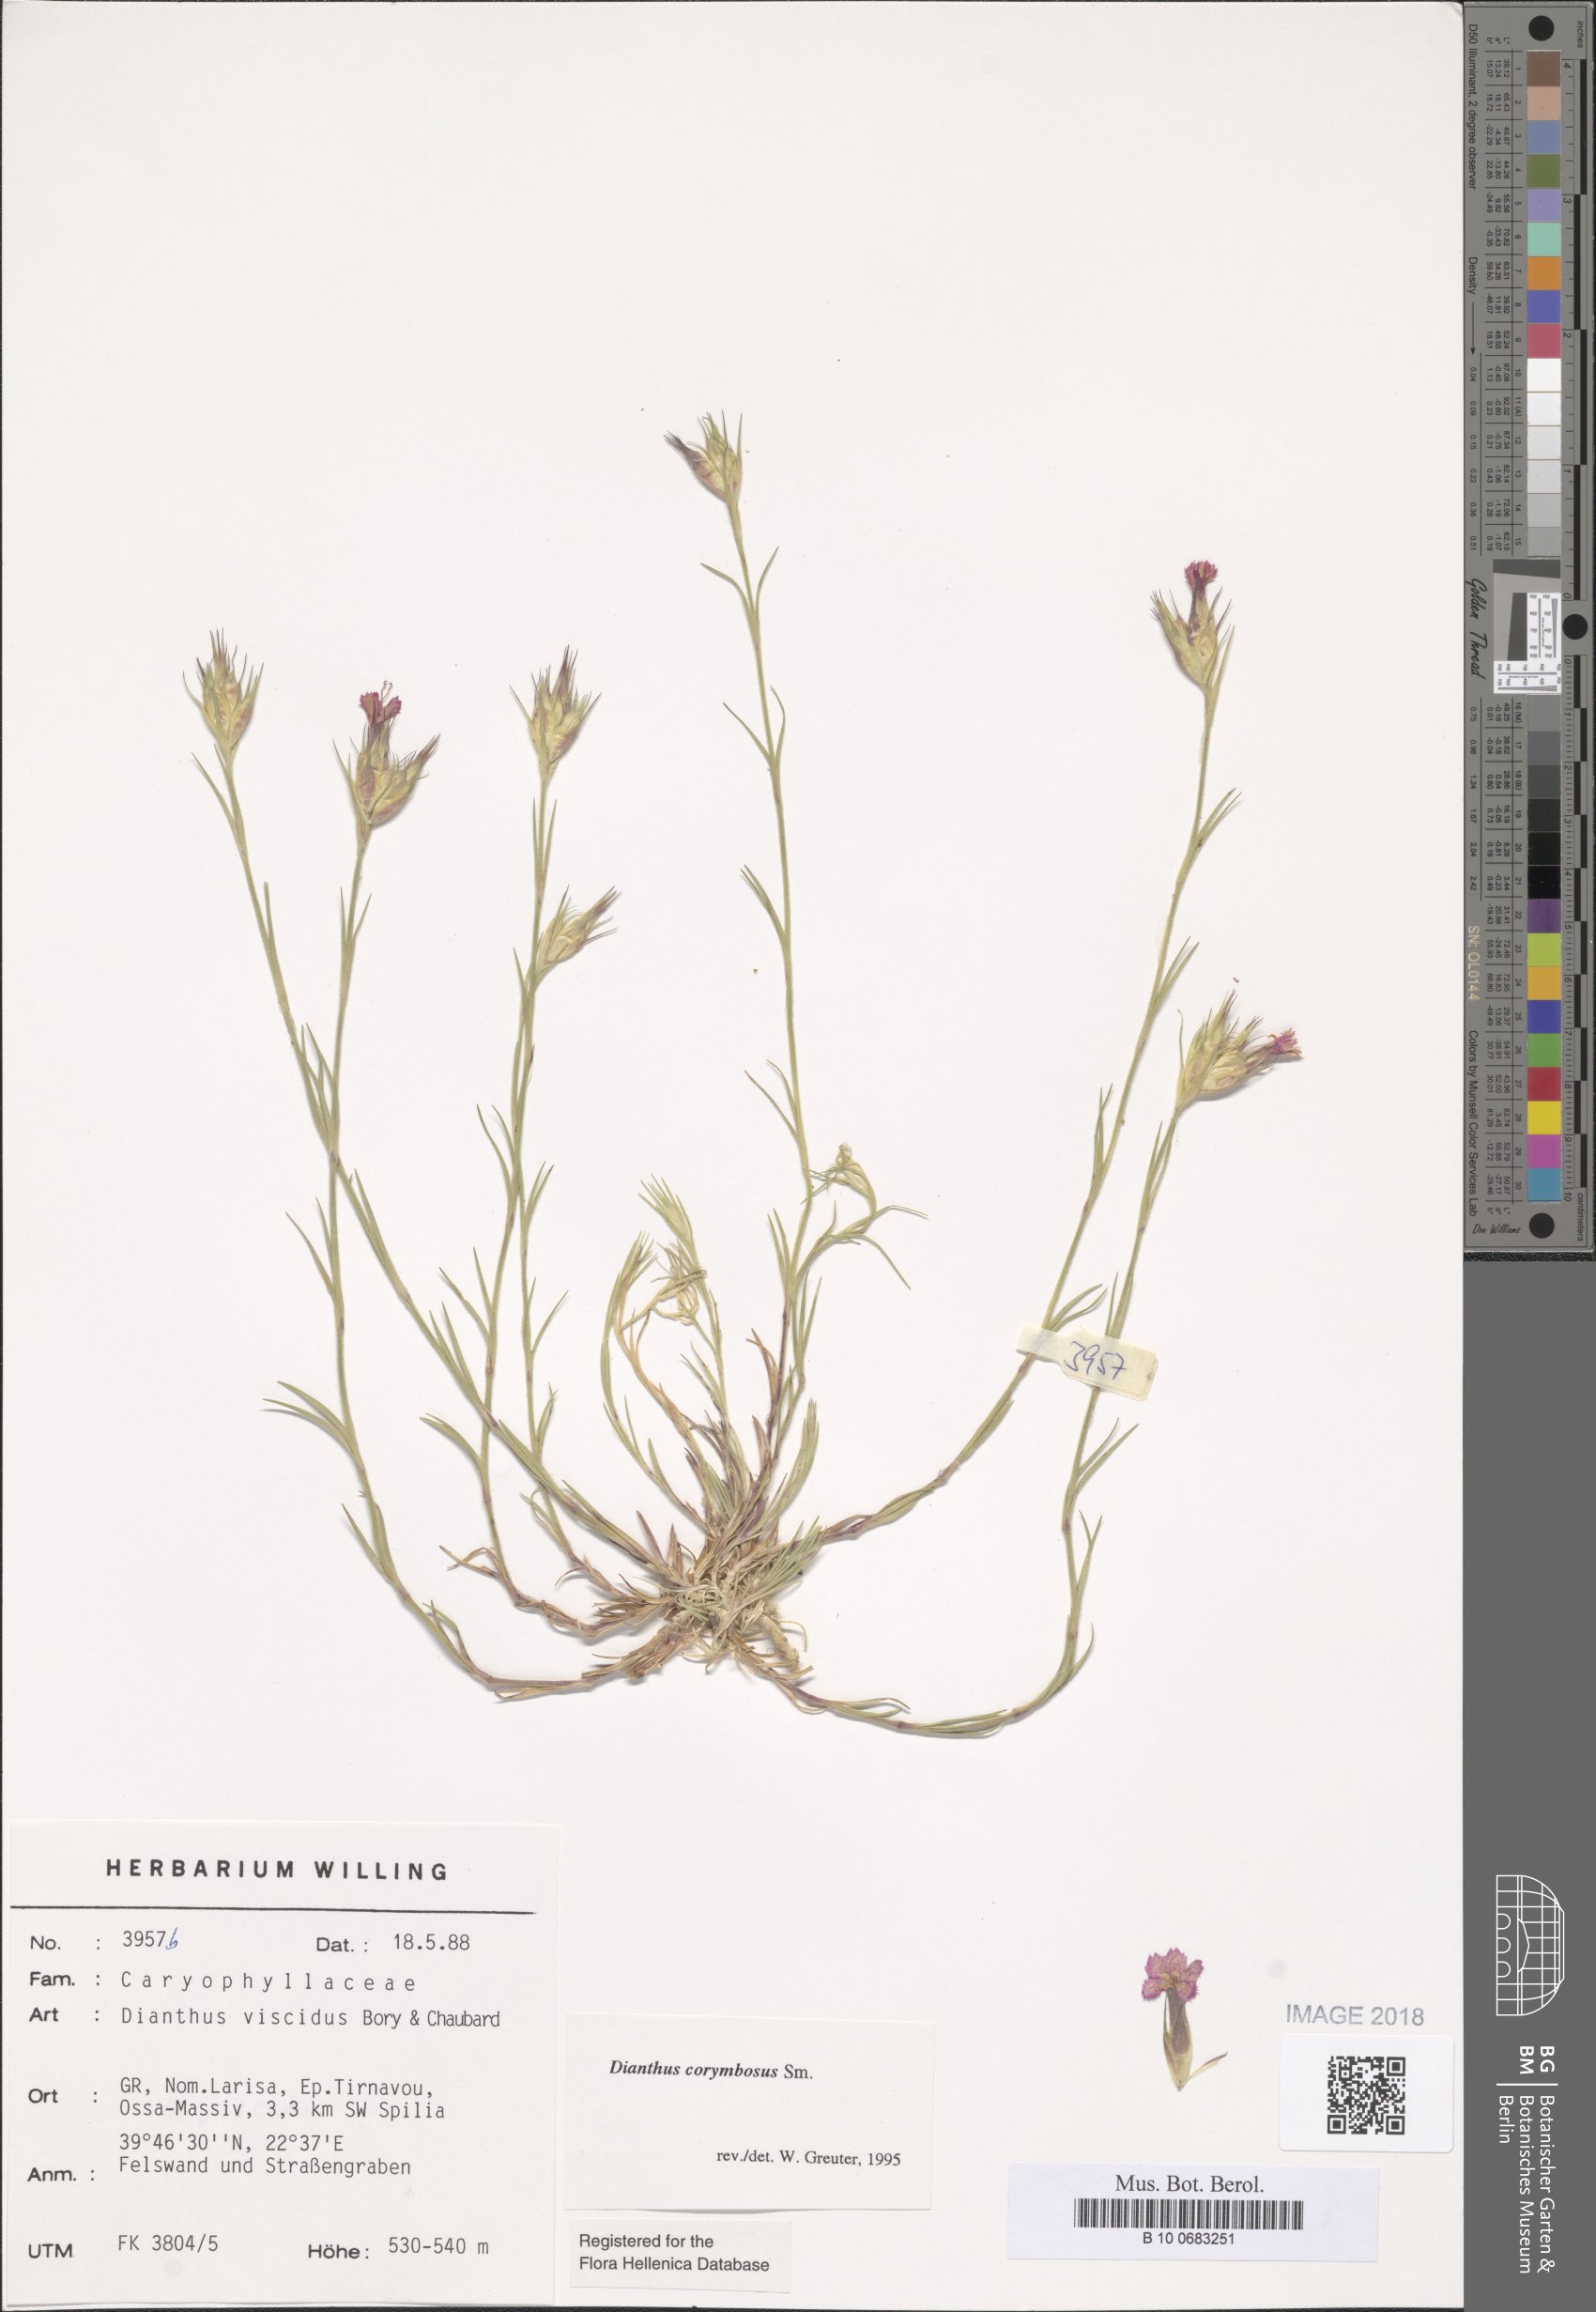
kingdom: Plantae
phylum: Tracheophyta
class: Magnoliopsida
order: Caryophyllales
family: Caryophyllaceae
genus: Dianthus
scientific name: Dianthus corymbosus
